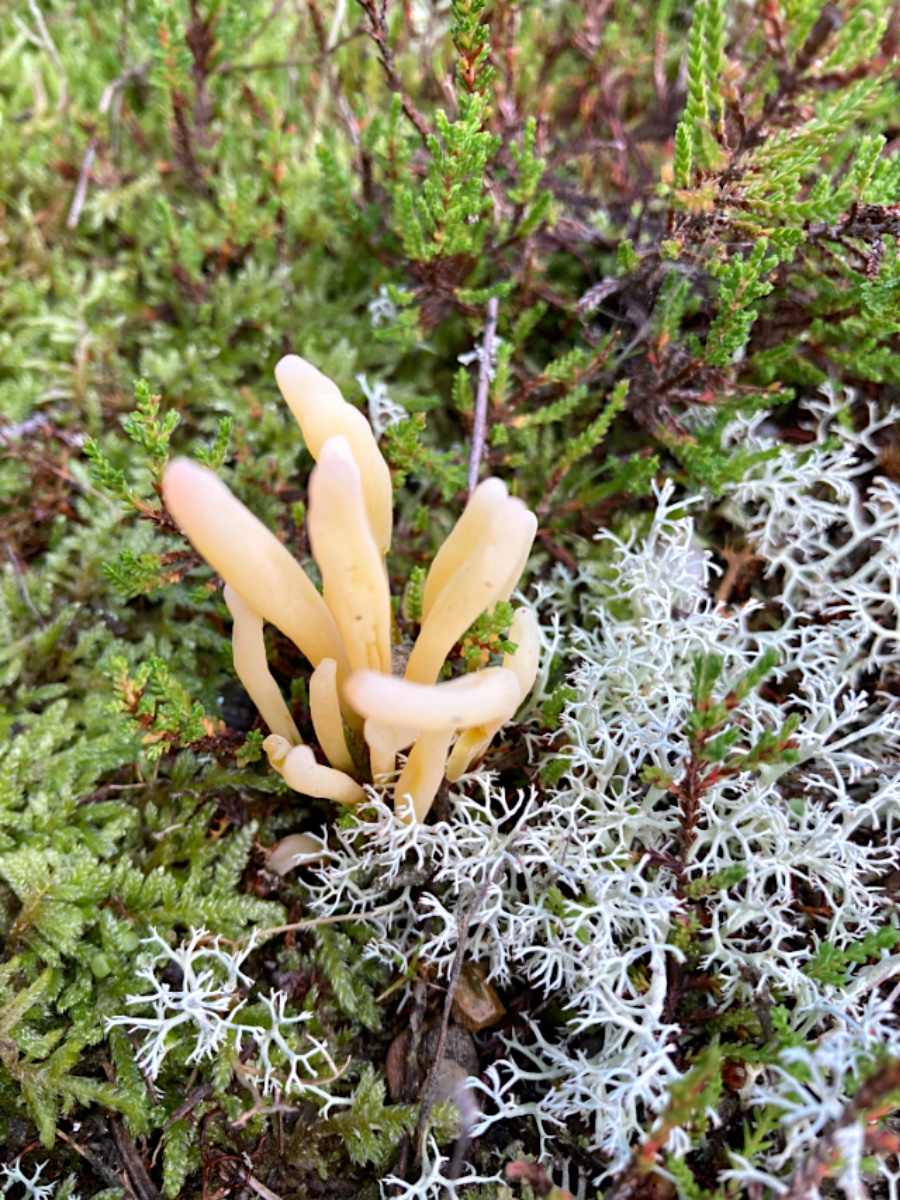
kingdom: Fungi
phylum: Basidiomycota
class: Agaricomycetes
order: Agaricales
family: Clavariaceae
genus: Clavaria
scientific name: Clavaria argillacea
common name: lerfarvet køllesvamp
